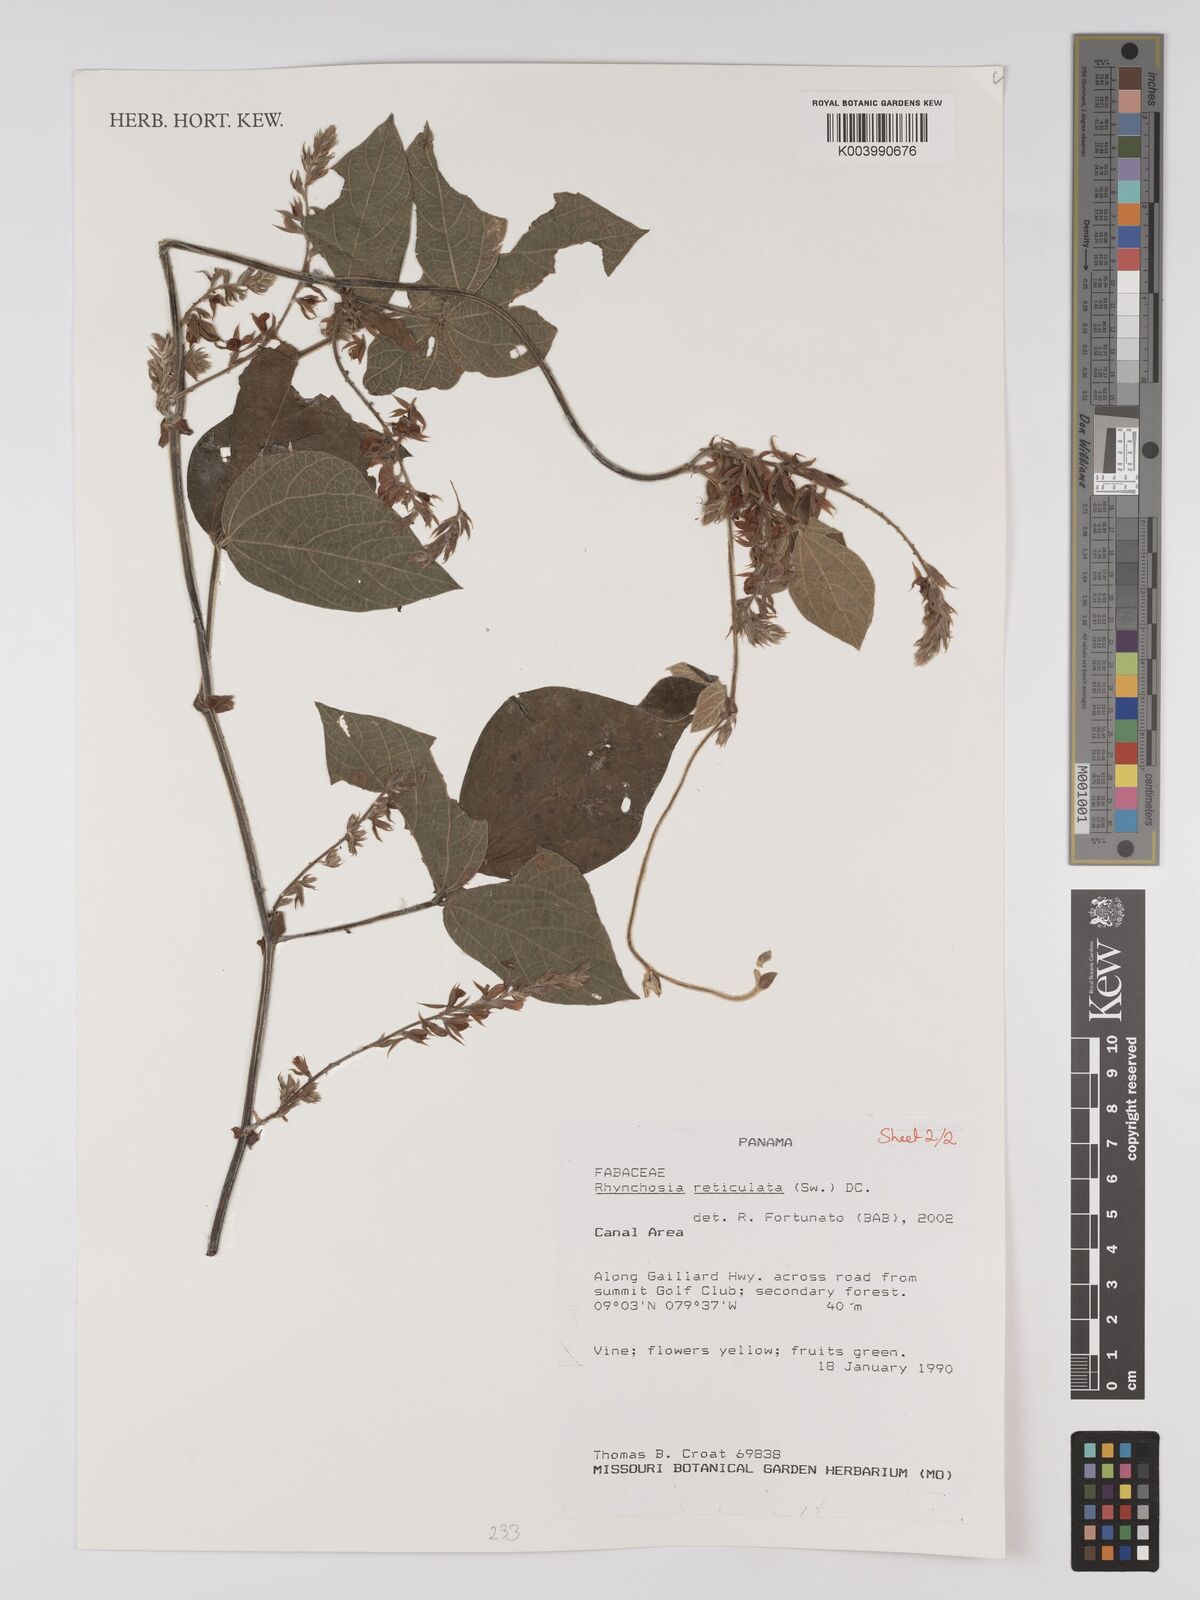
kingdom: Plantae
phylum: Tracheophyta
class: Magnoliopsida
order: Fabales
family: Fabaceae
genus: Rhynchosia
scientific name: Rhynchosia reticulata
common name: Pea withe
